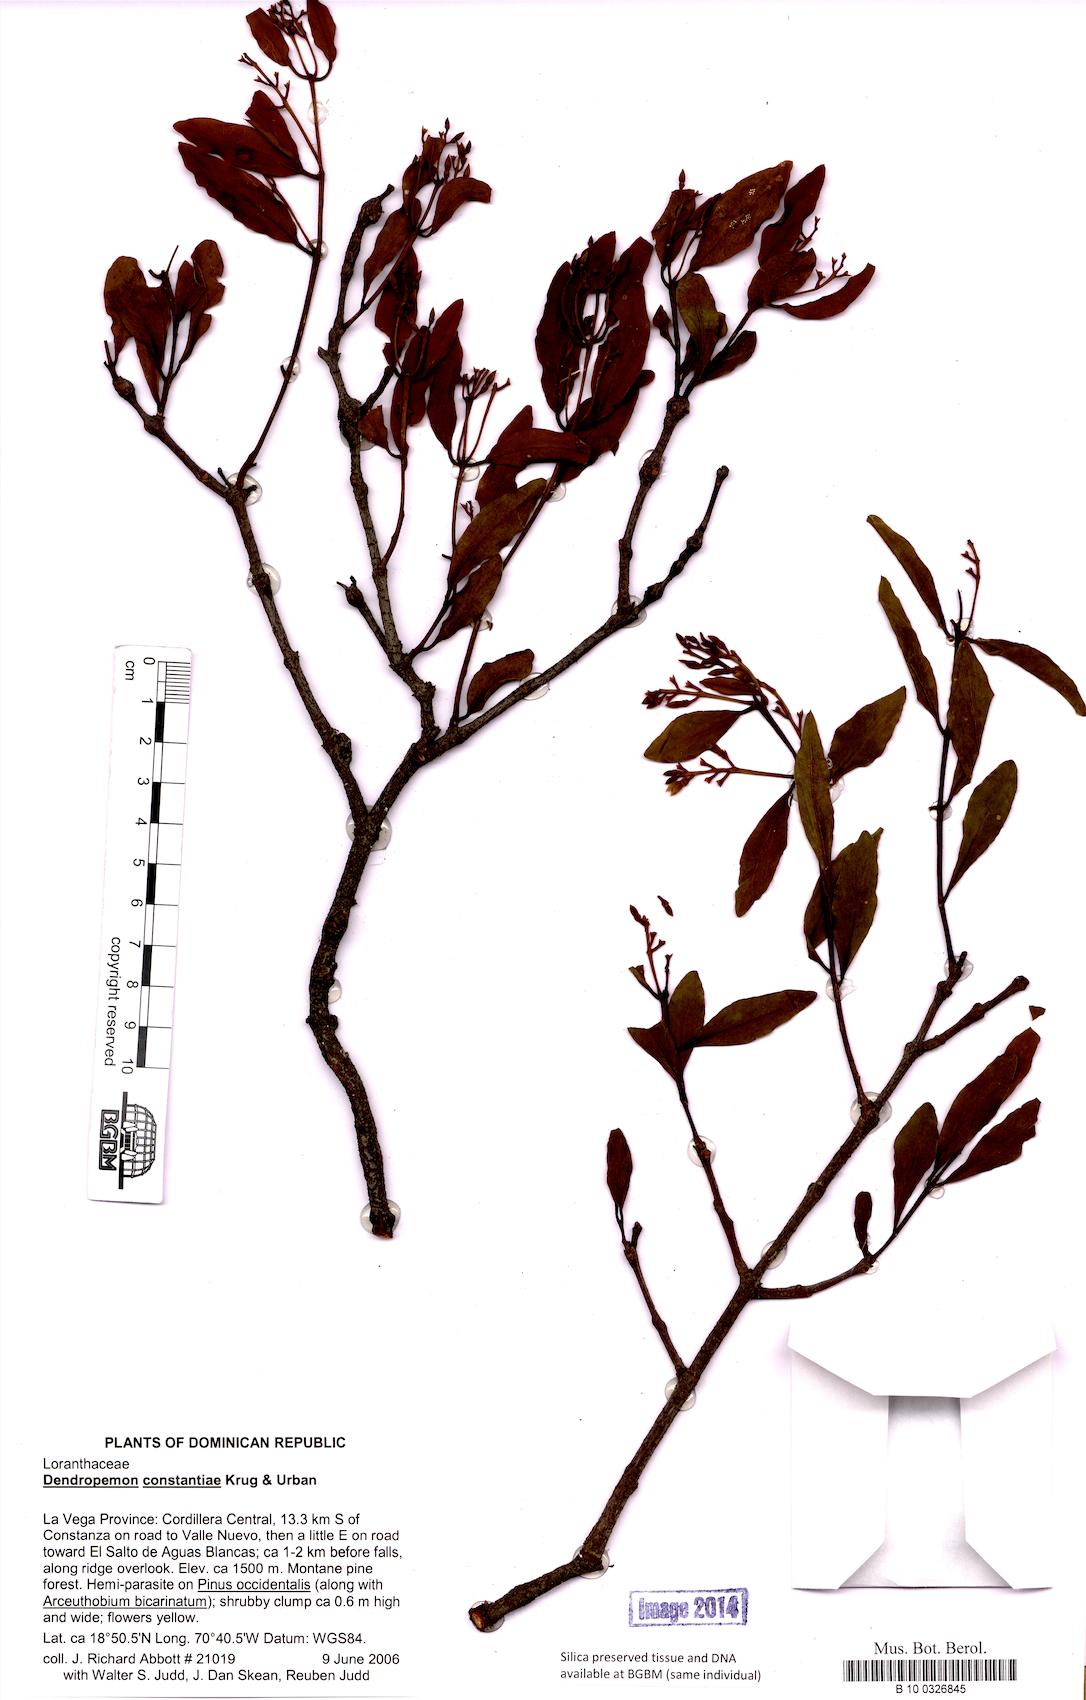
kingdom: Plantae
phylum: Tracheophyta
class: Magnoliopsida
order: Santalales
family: Loranthaceae
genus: Dendropemon
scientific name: Dendropemon constantiae
